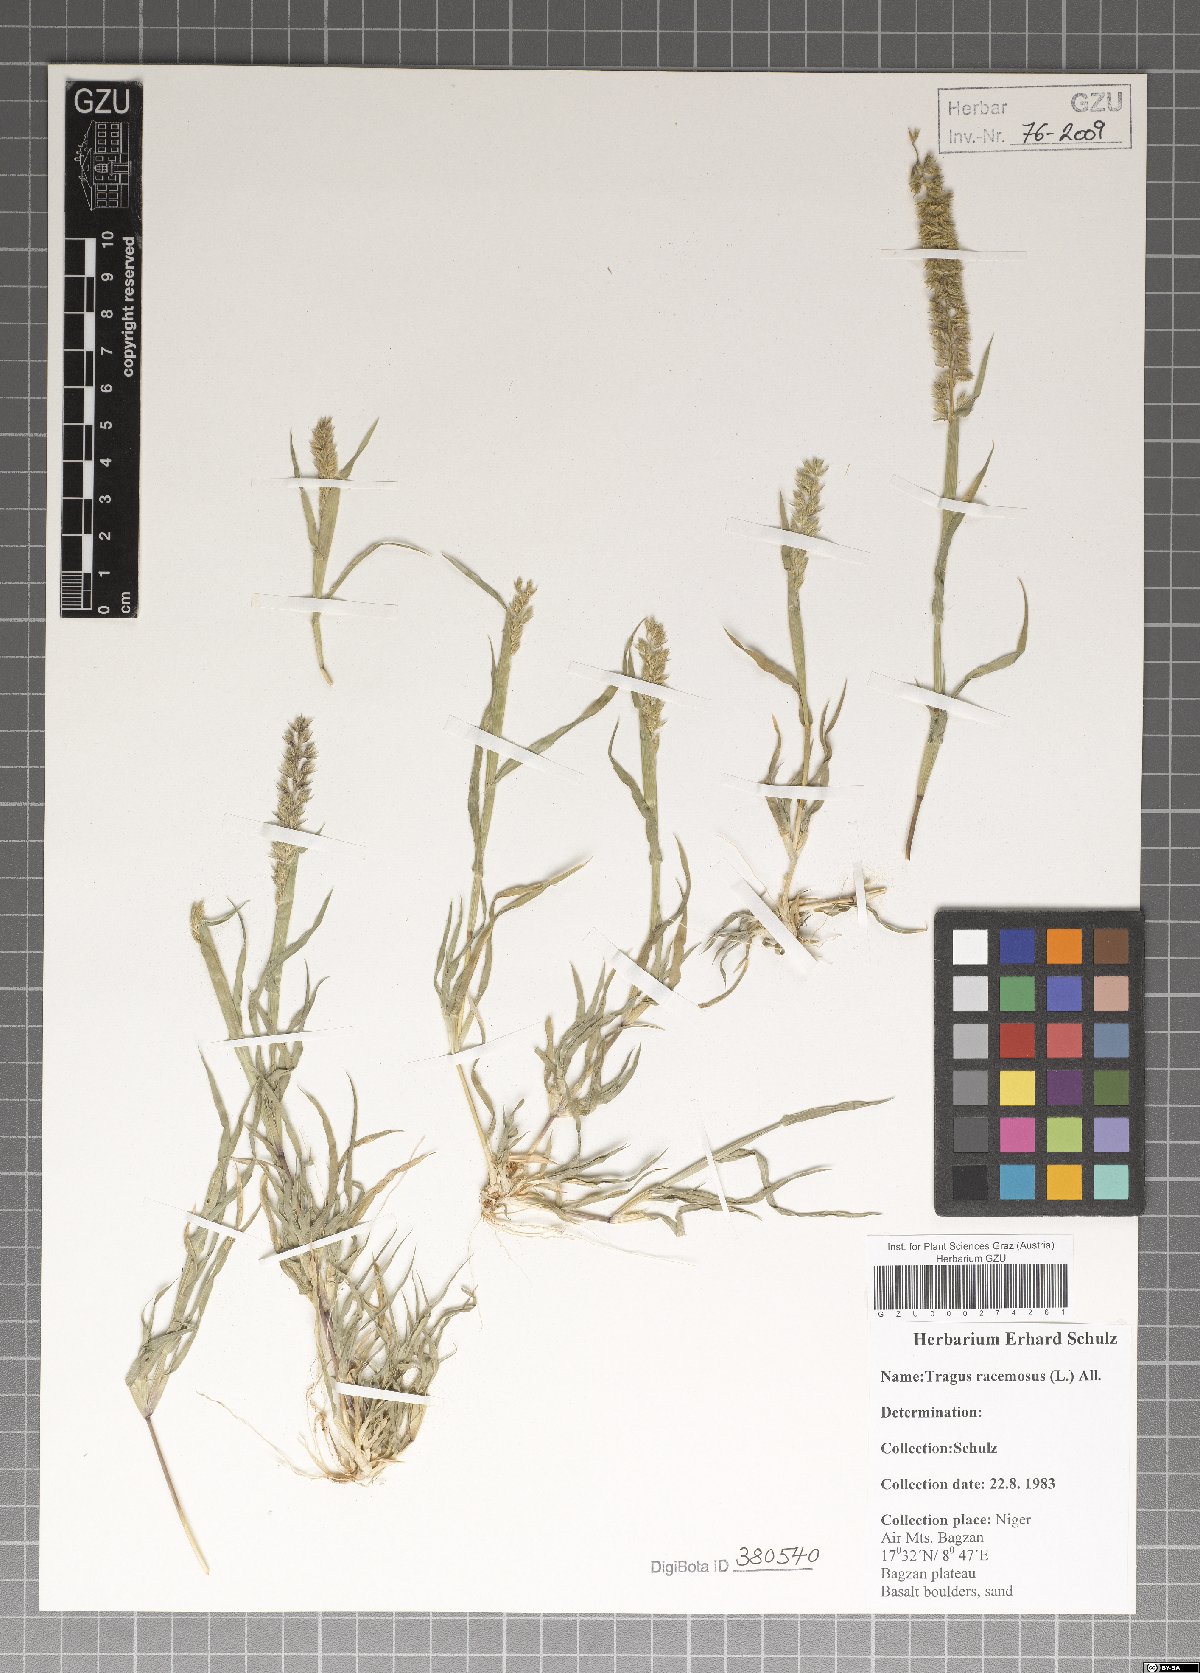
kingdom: Plantae
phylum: Tracheophyta
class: Liliopsida
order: Poales
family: Poaceae
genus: Tragus
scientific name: Tragus racemosus
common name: European bur-grass
